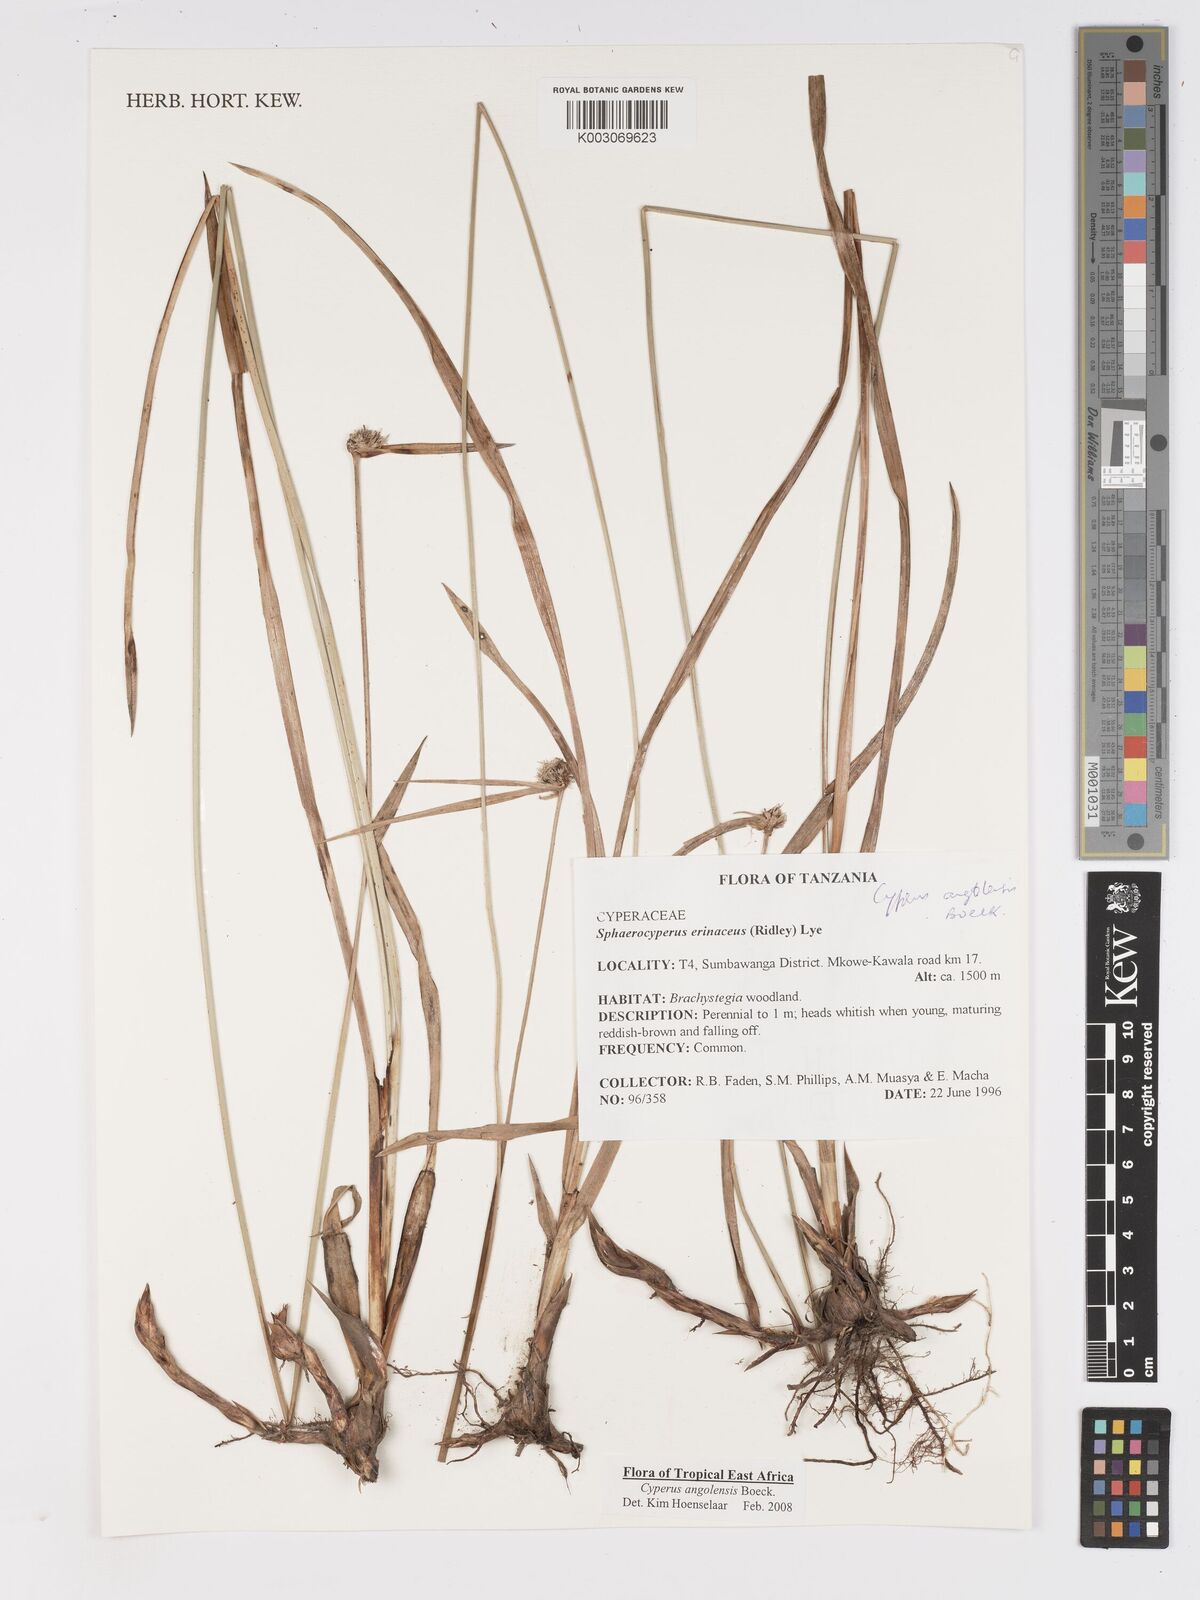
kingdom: Plantae
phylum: Tracheophyta
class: Liliopsida
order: Poales
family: Cyperaceae
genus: Cyperus
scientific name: Cyperus angolensis
